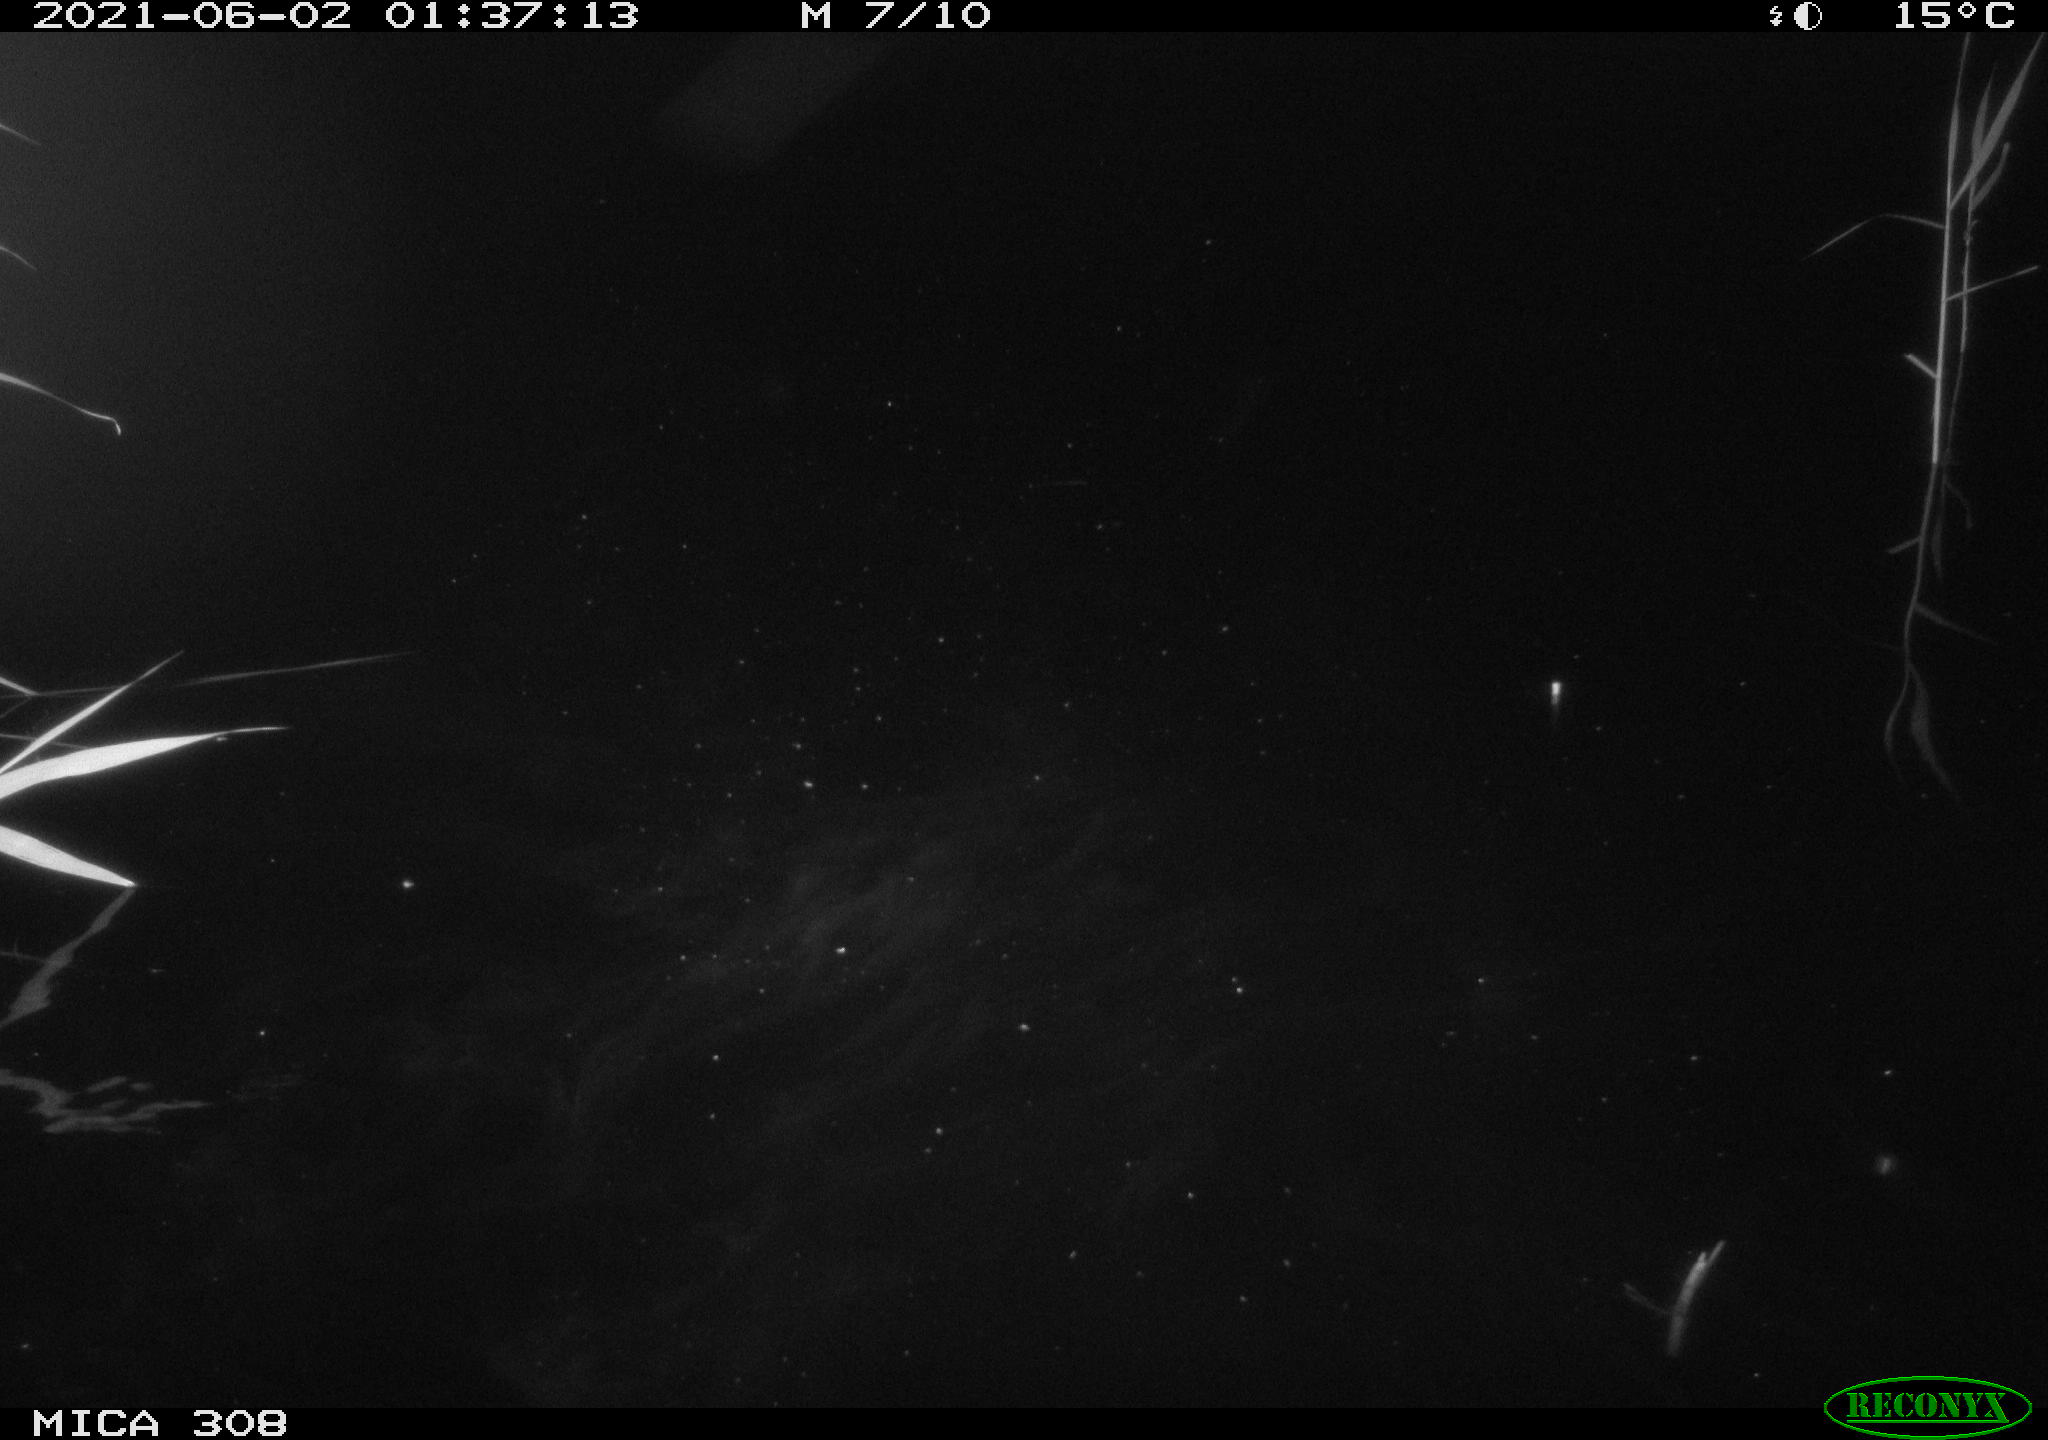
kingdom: Animalia
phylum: Chordata
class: Mammalia
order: Rodentia
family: Cricetidae
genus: Ondatra
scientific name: Ondatra zibethicus
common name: Muskrat
